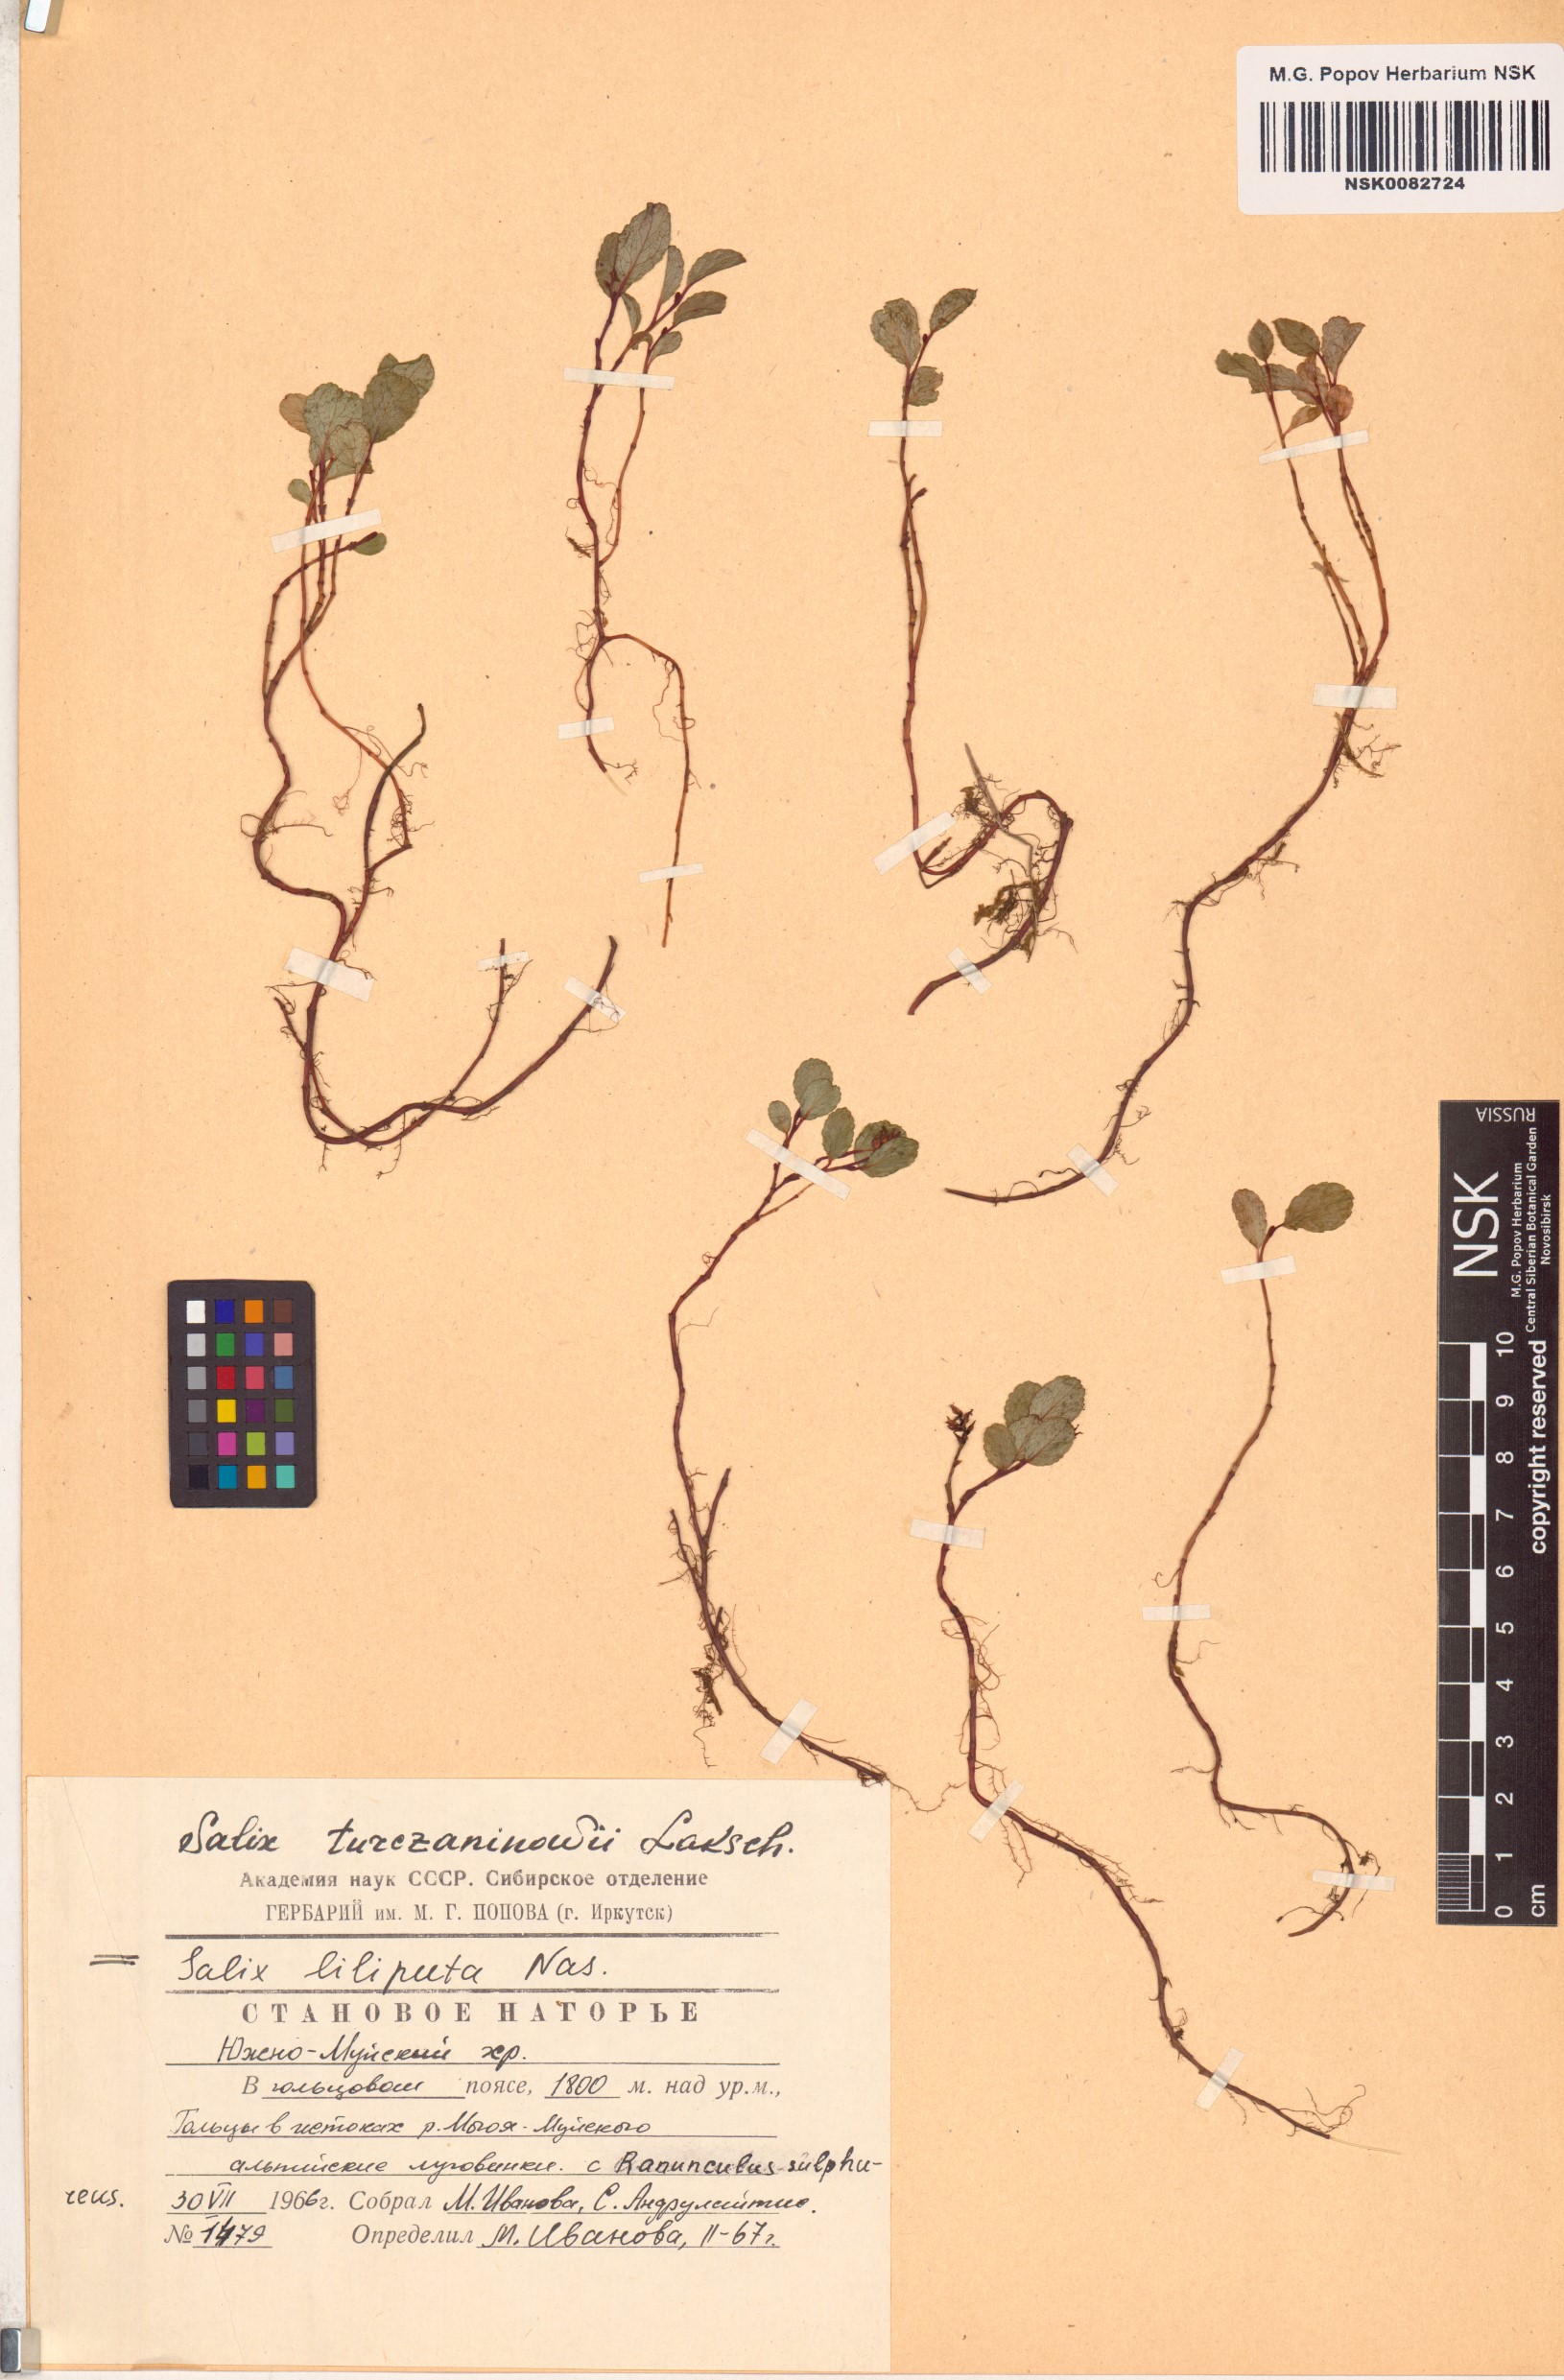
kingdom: Plantae
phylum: Tracheophyta
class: Magnoliopsida
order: Malpighiales
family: Salicaceae
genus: Salix
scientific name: Salix turczaninowii
